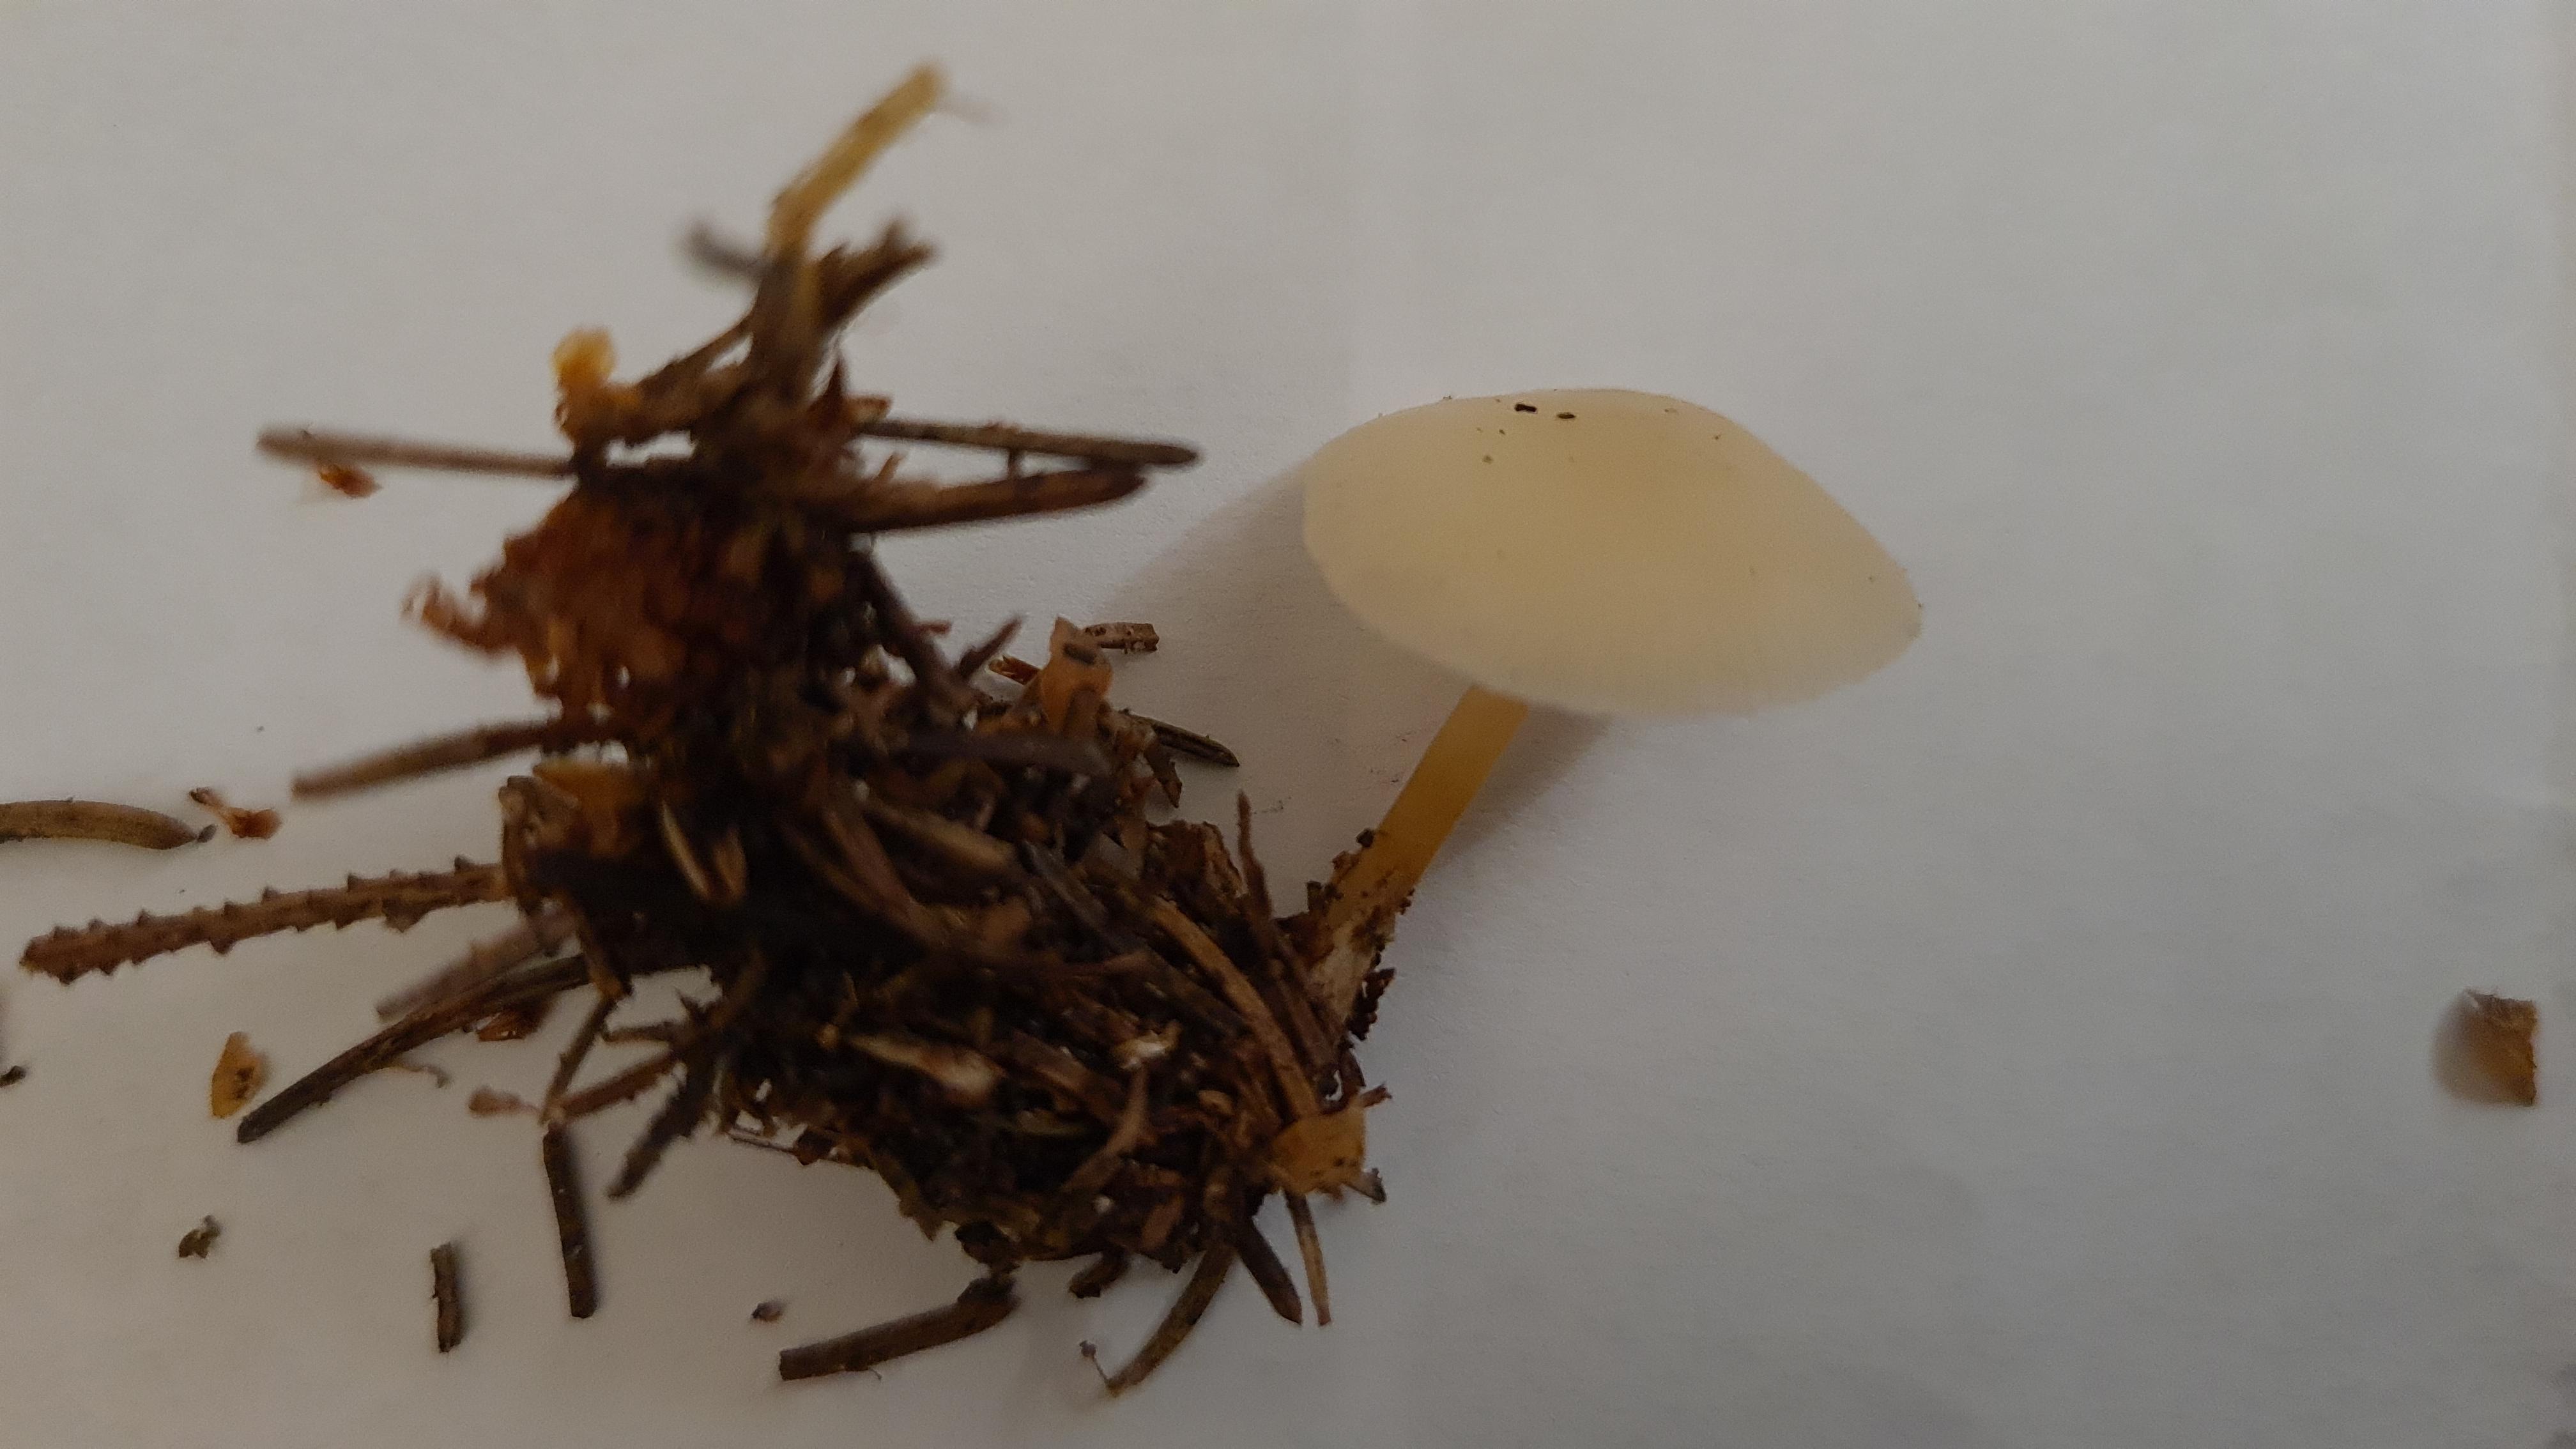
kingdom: Fungi
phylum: Basidiomycota
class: Agaricomycetes
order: Agaricales
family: Physalacriaceae
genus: Strobilurus
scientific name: Strobilurus esculentus
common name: gran-koglehat
